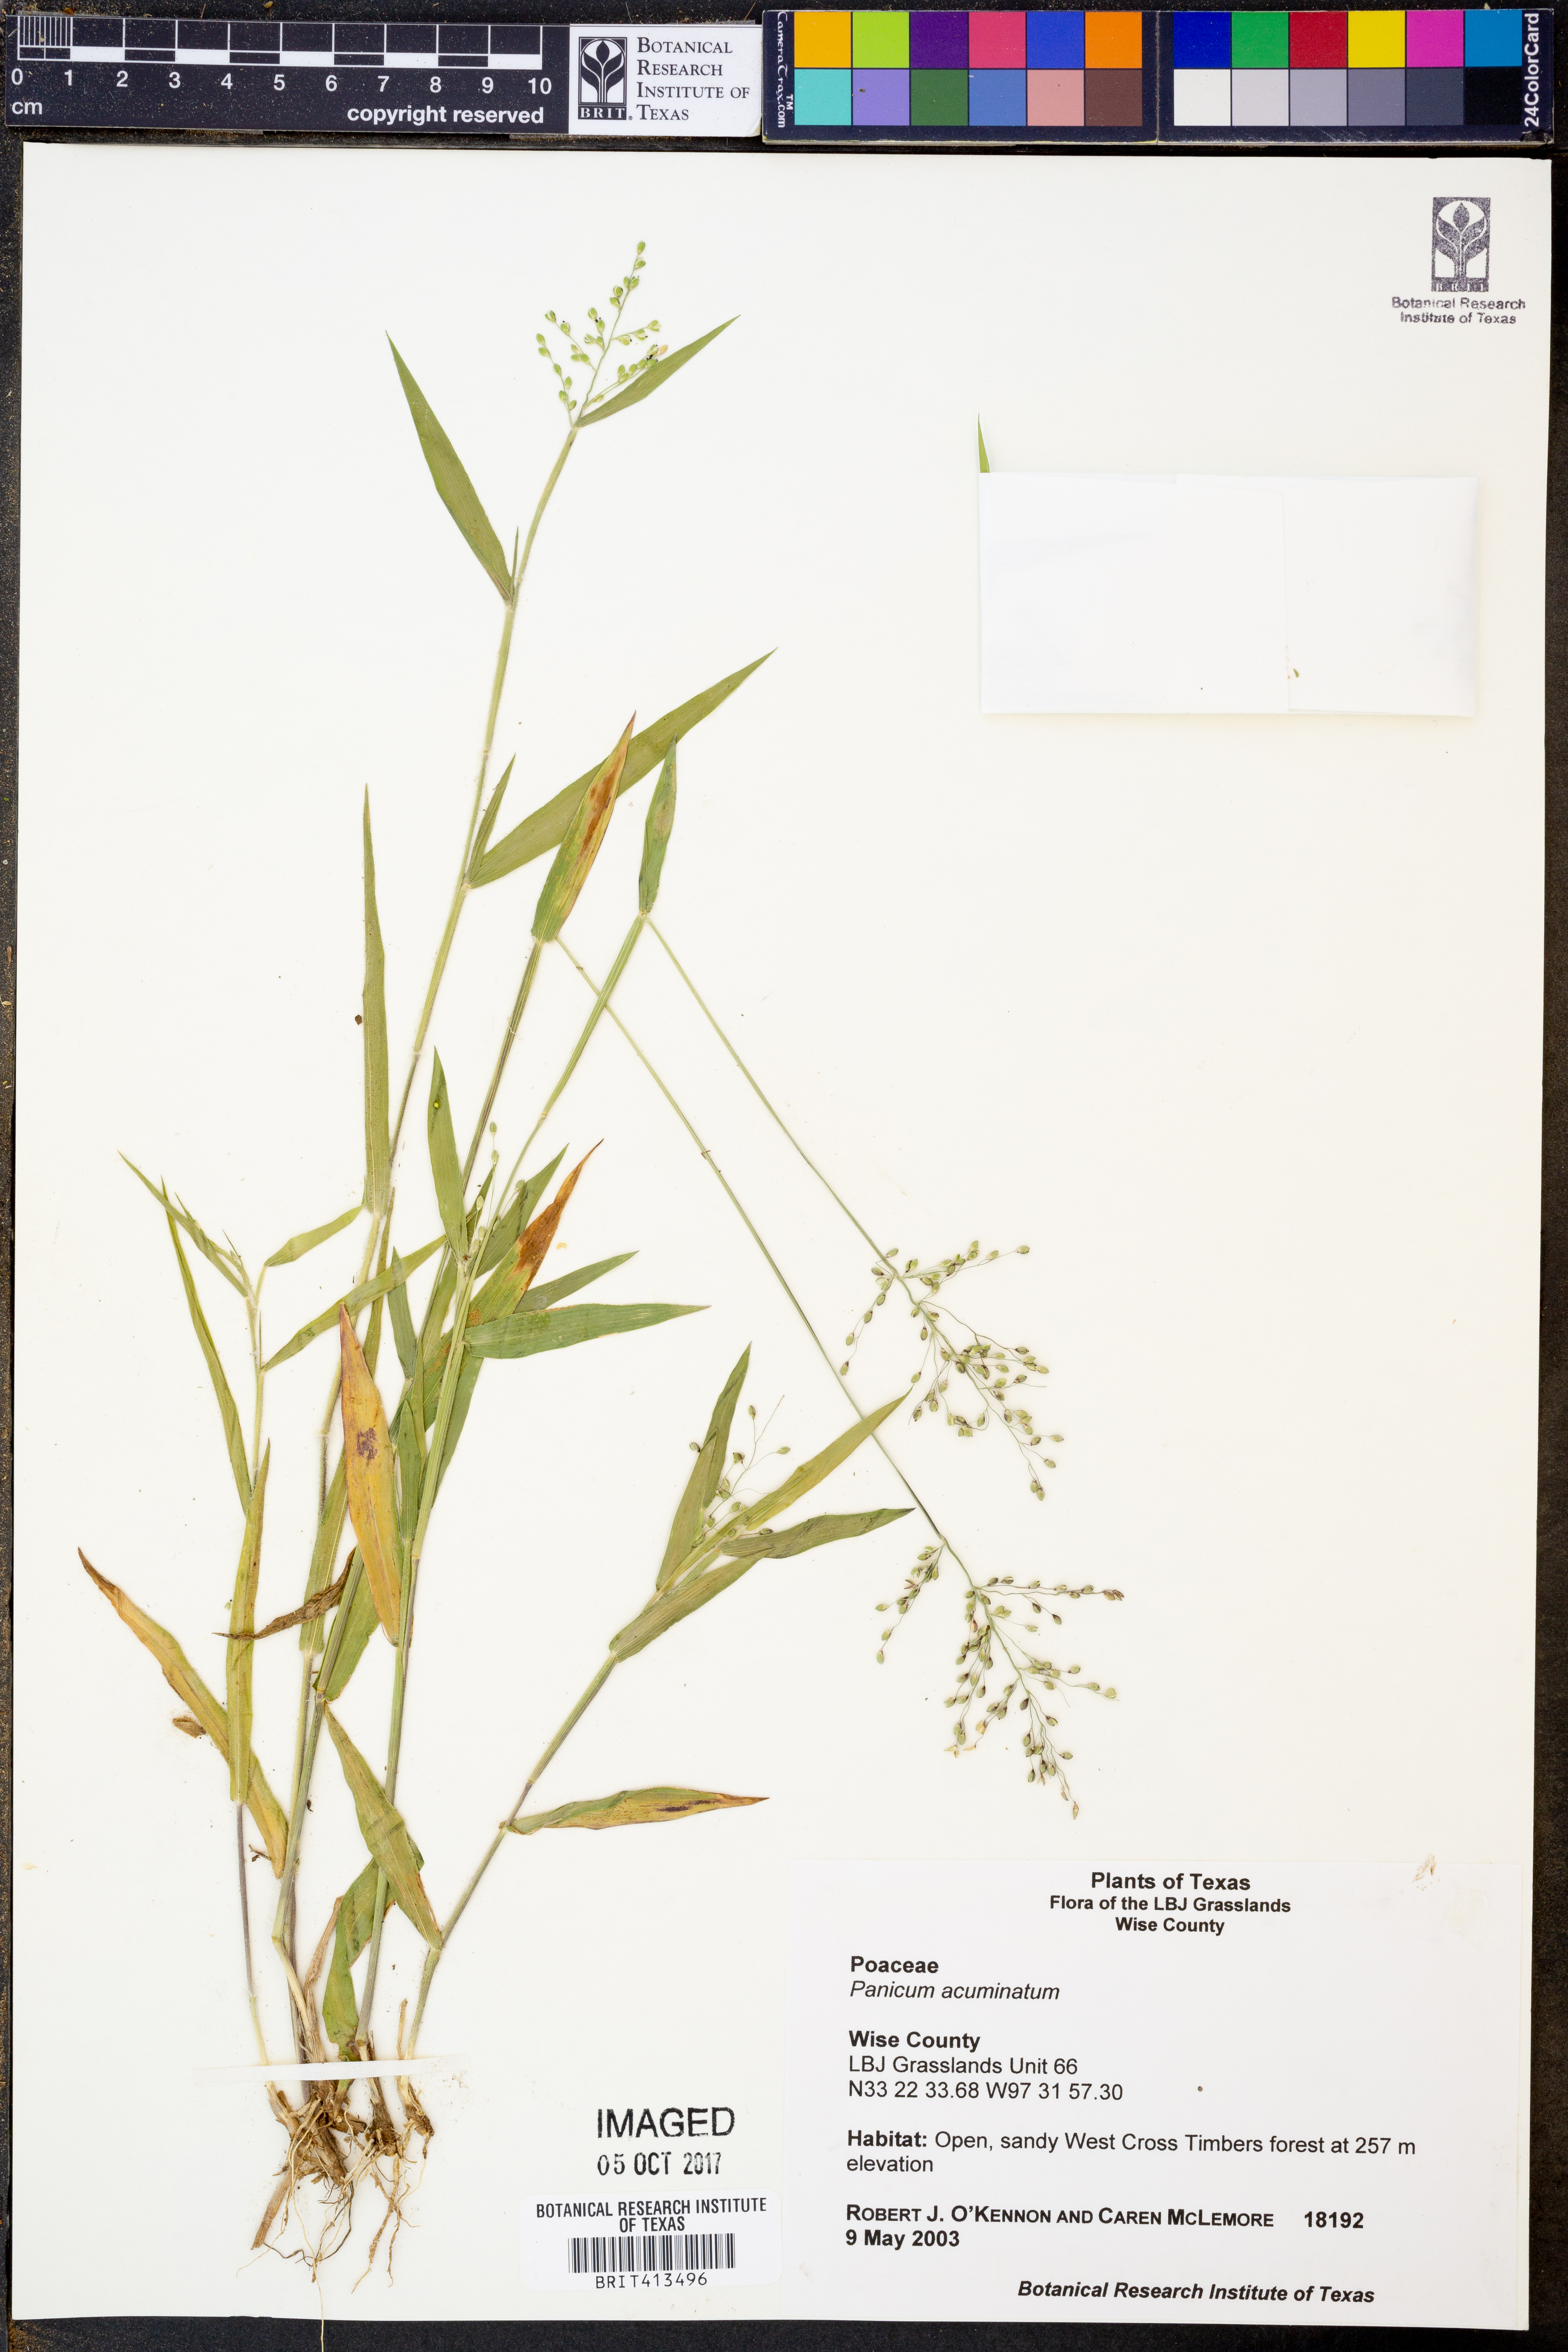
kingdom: Plantae
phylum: Tracheophyta
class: Liliopsida
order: Poales
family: Poaceae
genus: Dichanthelium
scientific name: Dichanthelium acuminatum
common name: Hairy panic grass
